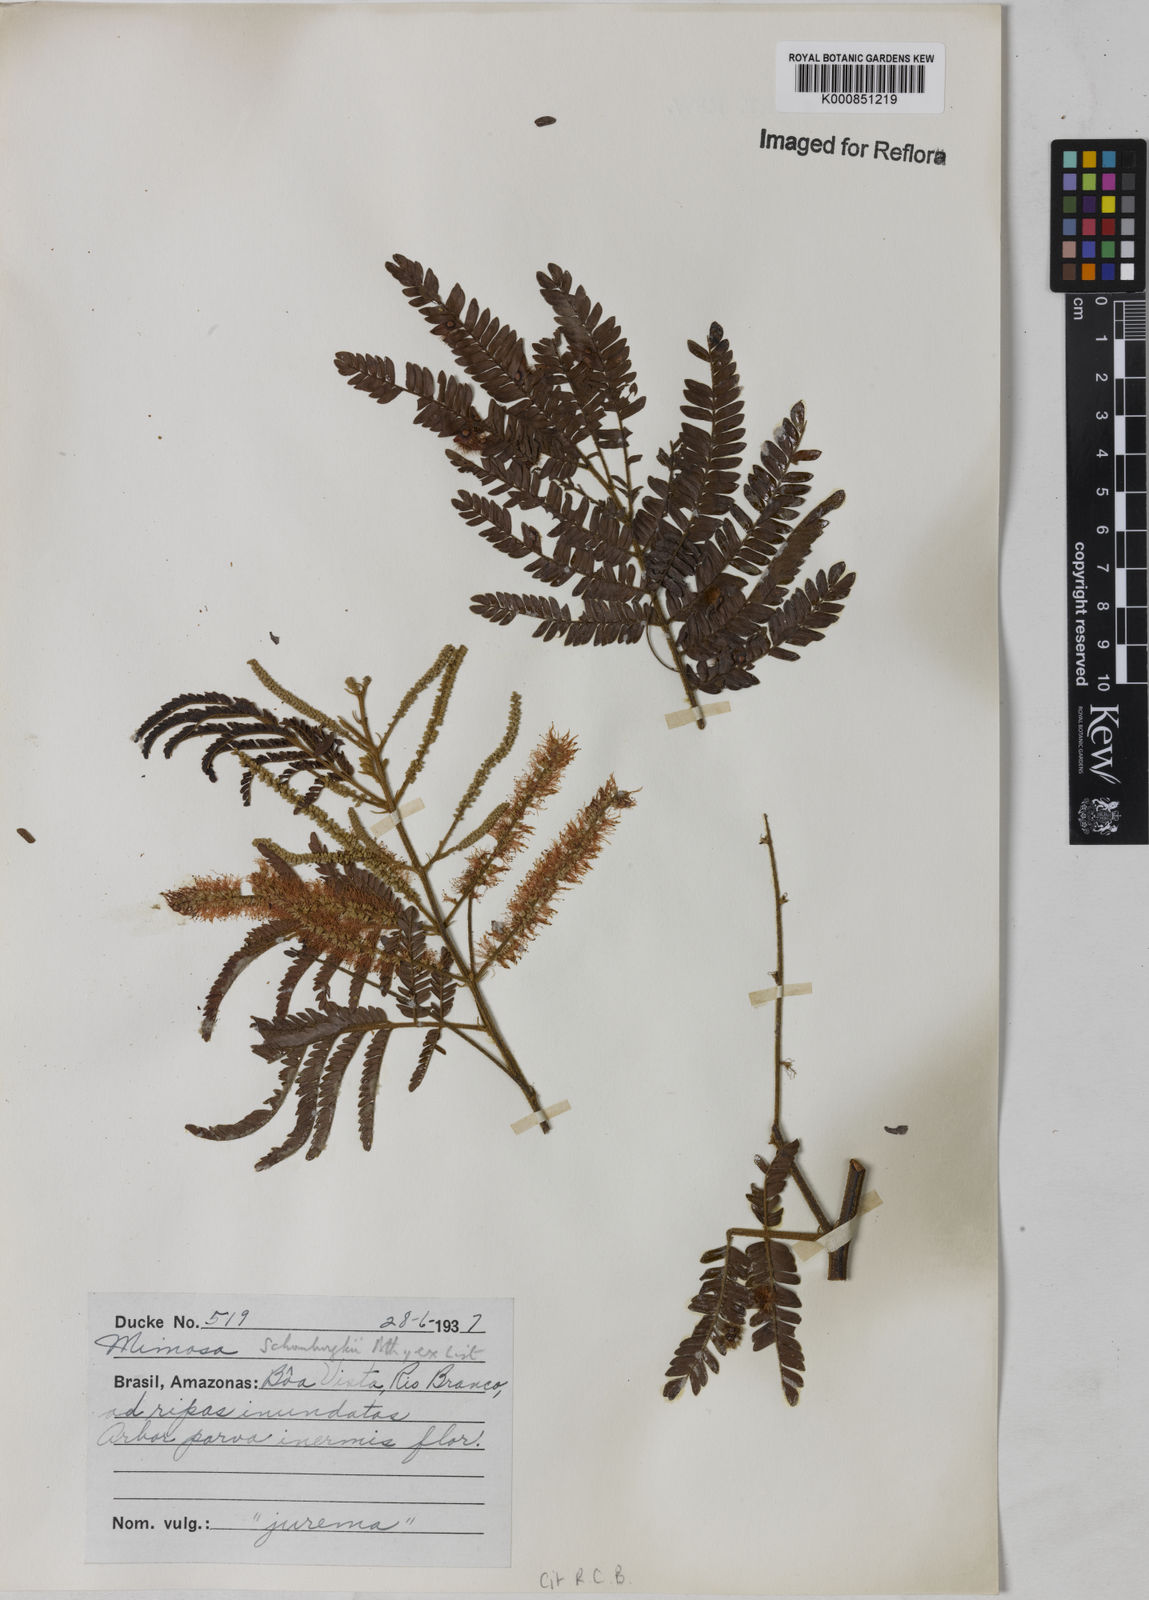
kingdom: Plantae
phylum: Tracheophyta
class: Magnoliopsida
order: Fabales
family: Fabaceae
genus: Mimosa
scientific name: Mimosa schomburgkii
